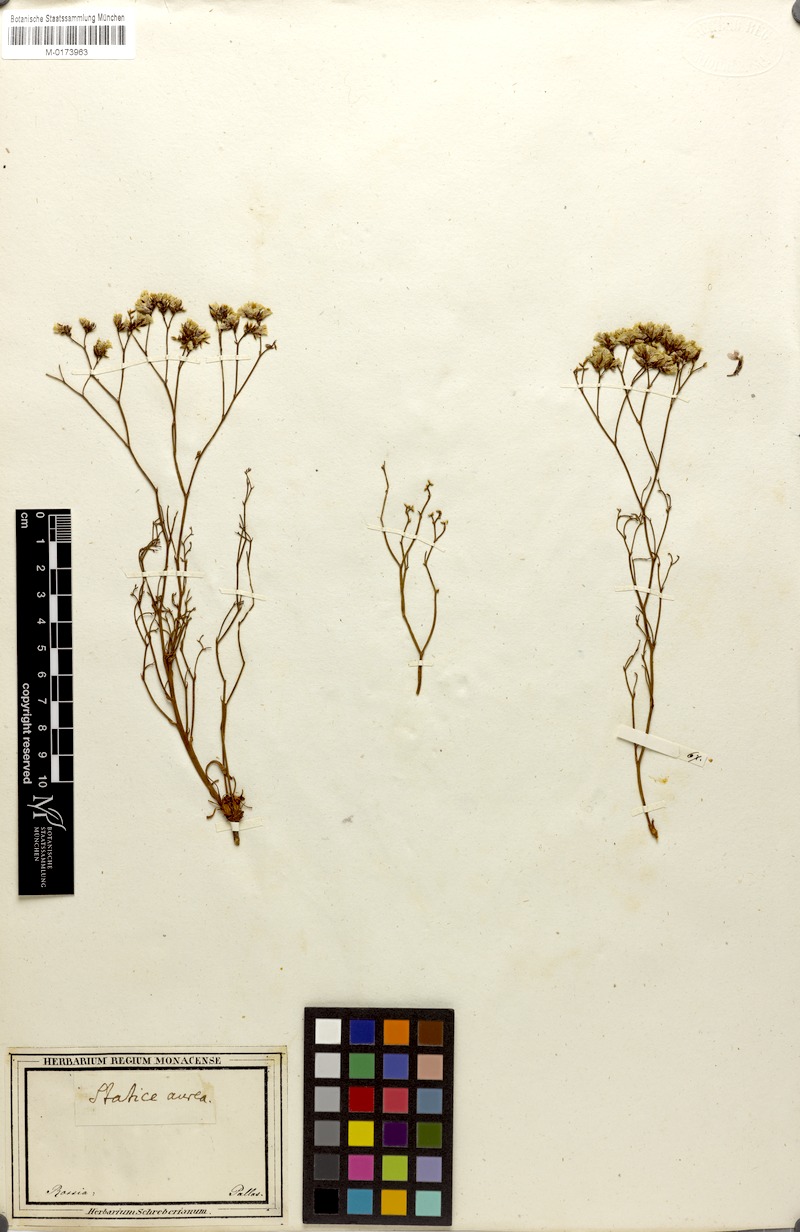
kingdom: Plantae
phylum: Tracheophyta
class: Magnoliopsida
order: Caryophyllales
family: Plumbaginaceae
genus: Limonium
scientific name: Limonium aureum
